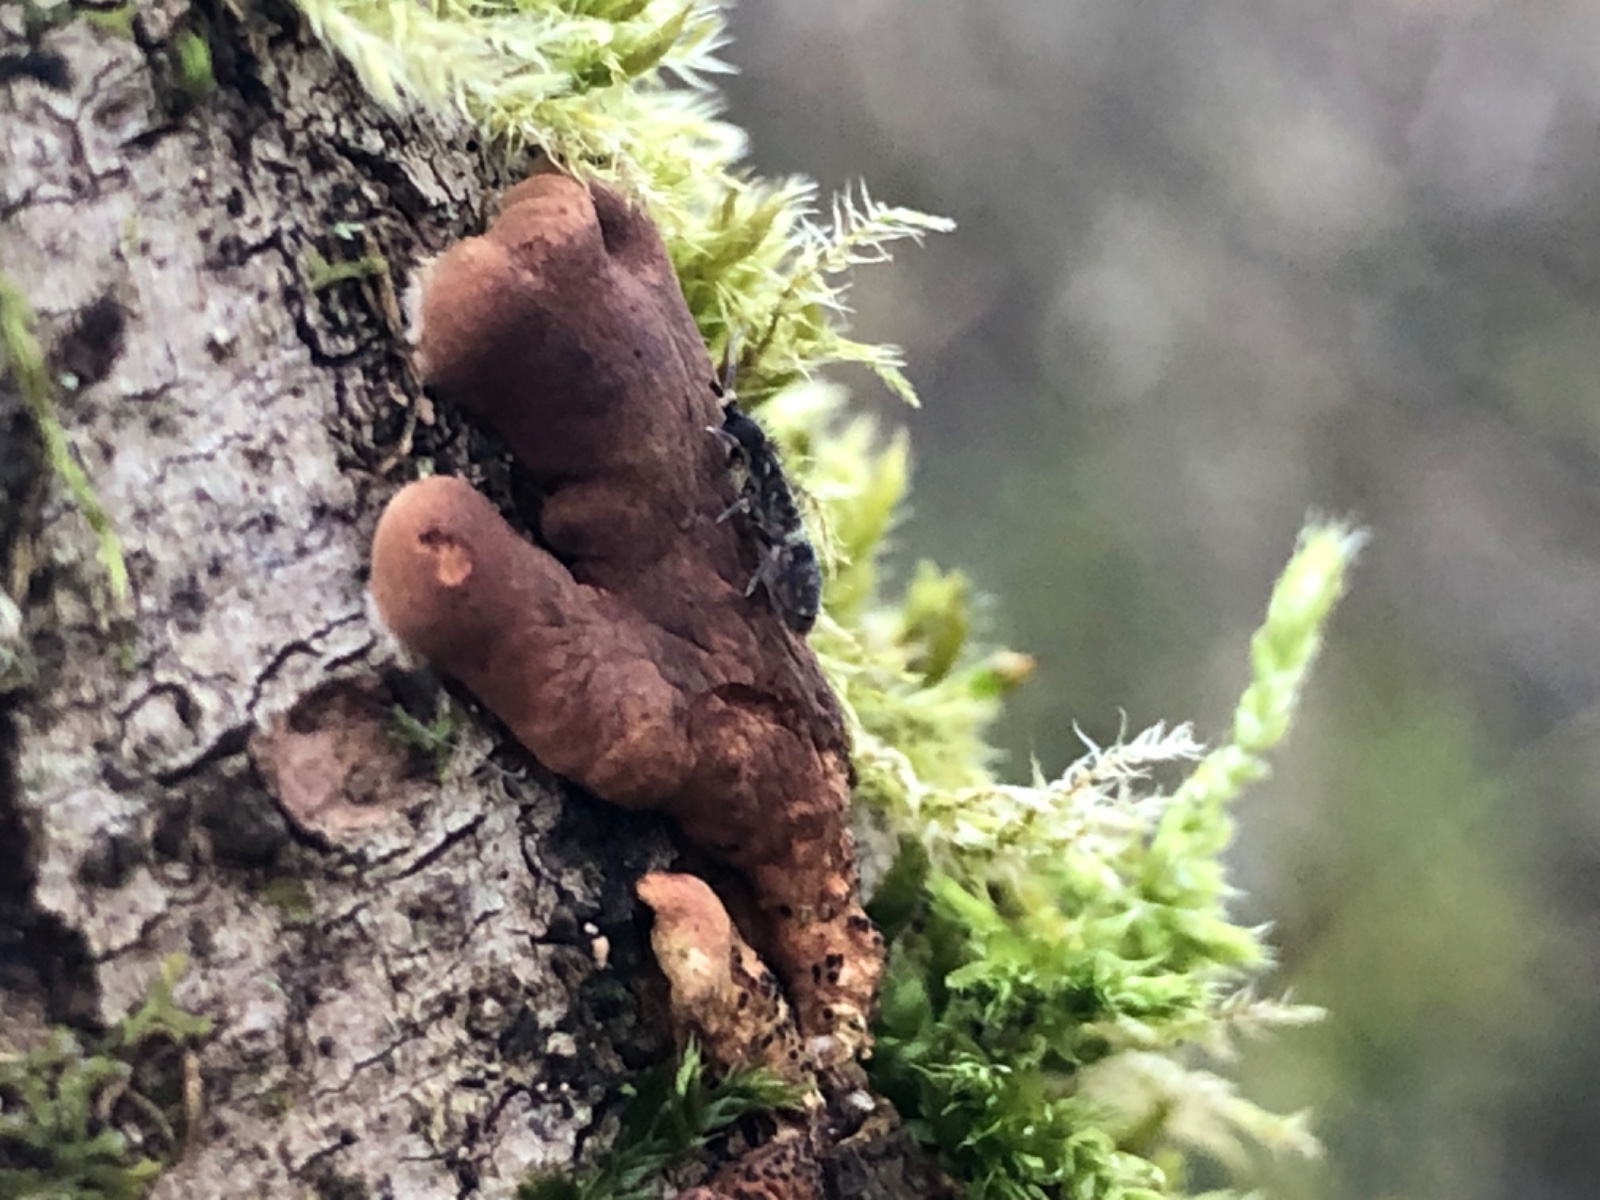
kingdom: Fungi
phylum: Ascomycota
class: Sordariomycetes
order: Hypocreales
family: Hypocreaceae
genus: Hypocreopsis
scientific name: Hypocreopsis lichenoides
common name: pilfinger
